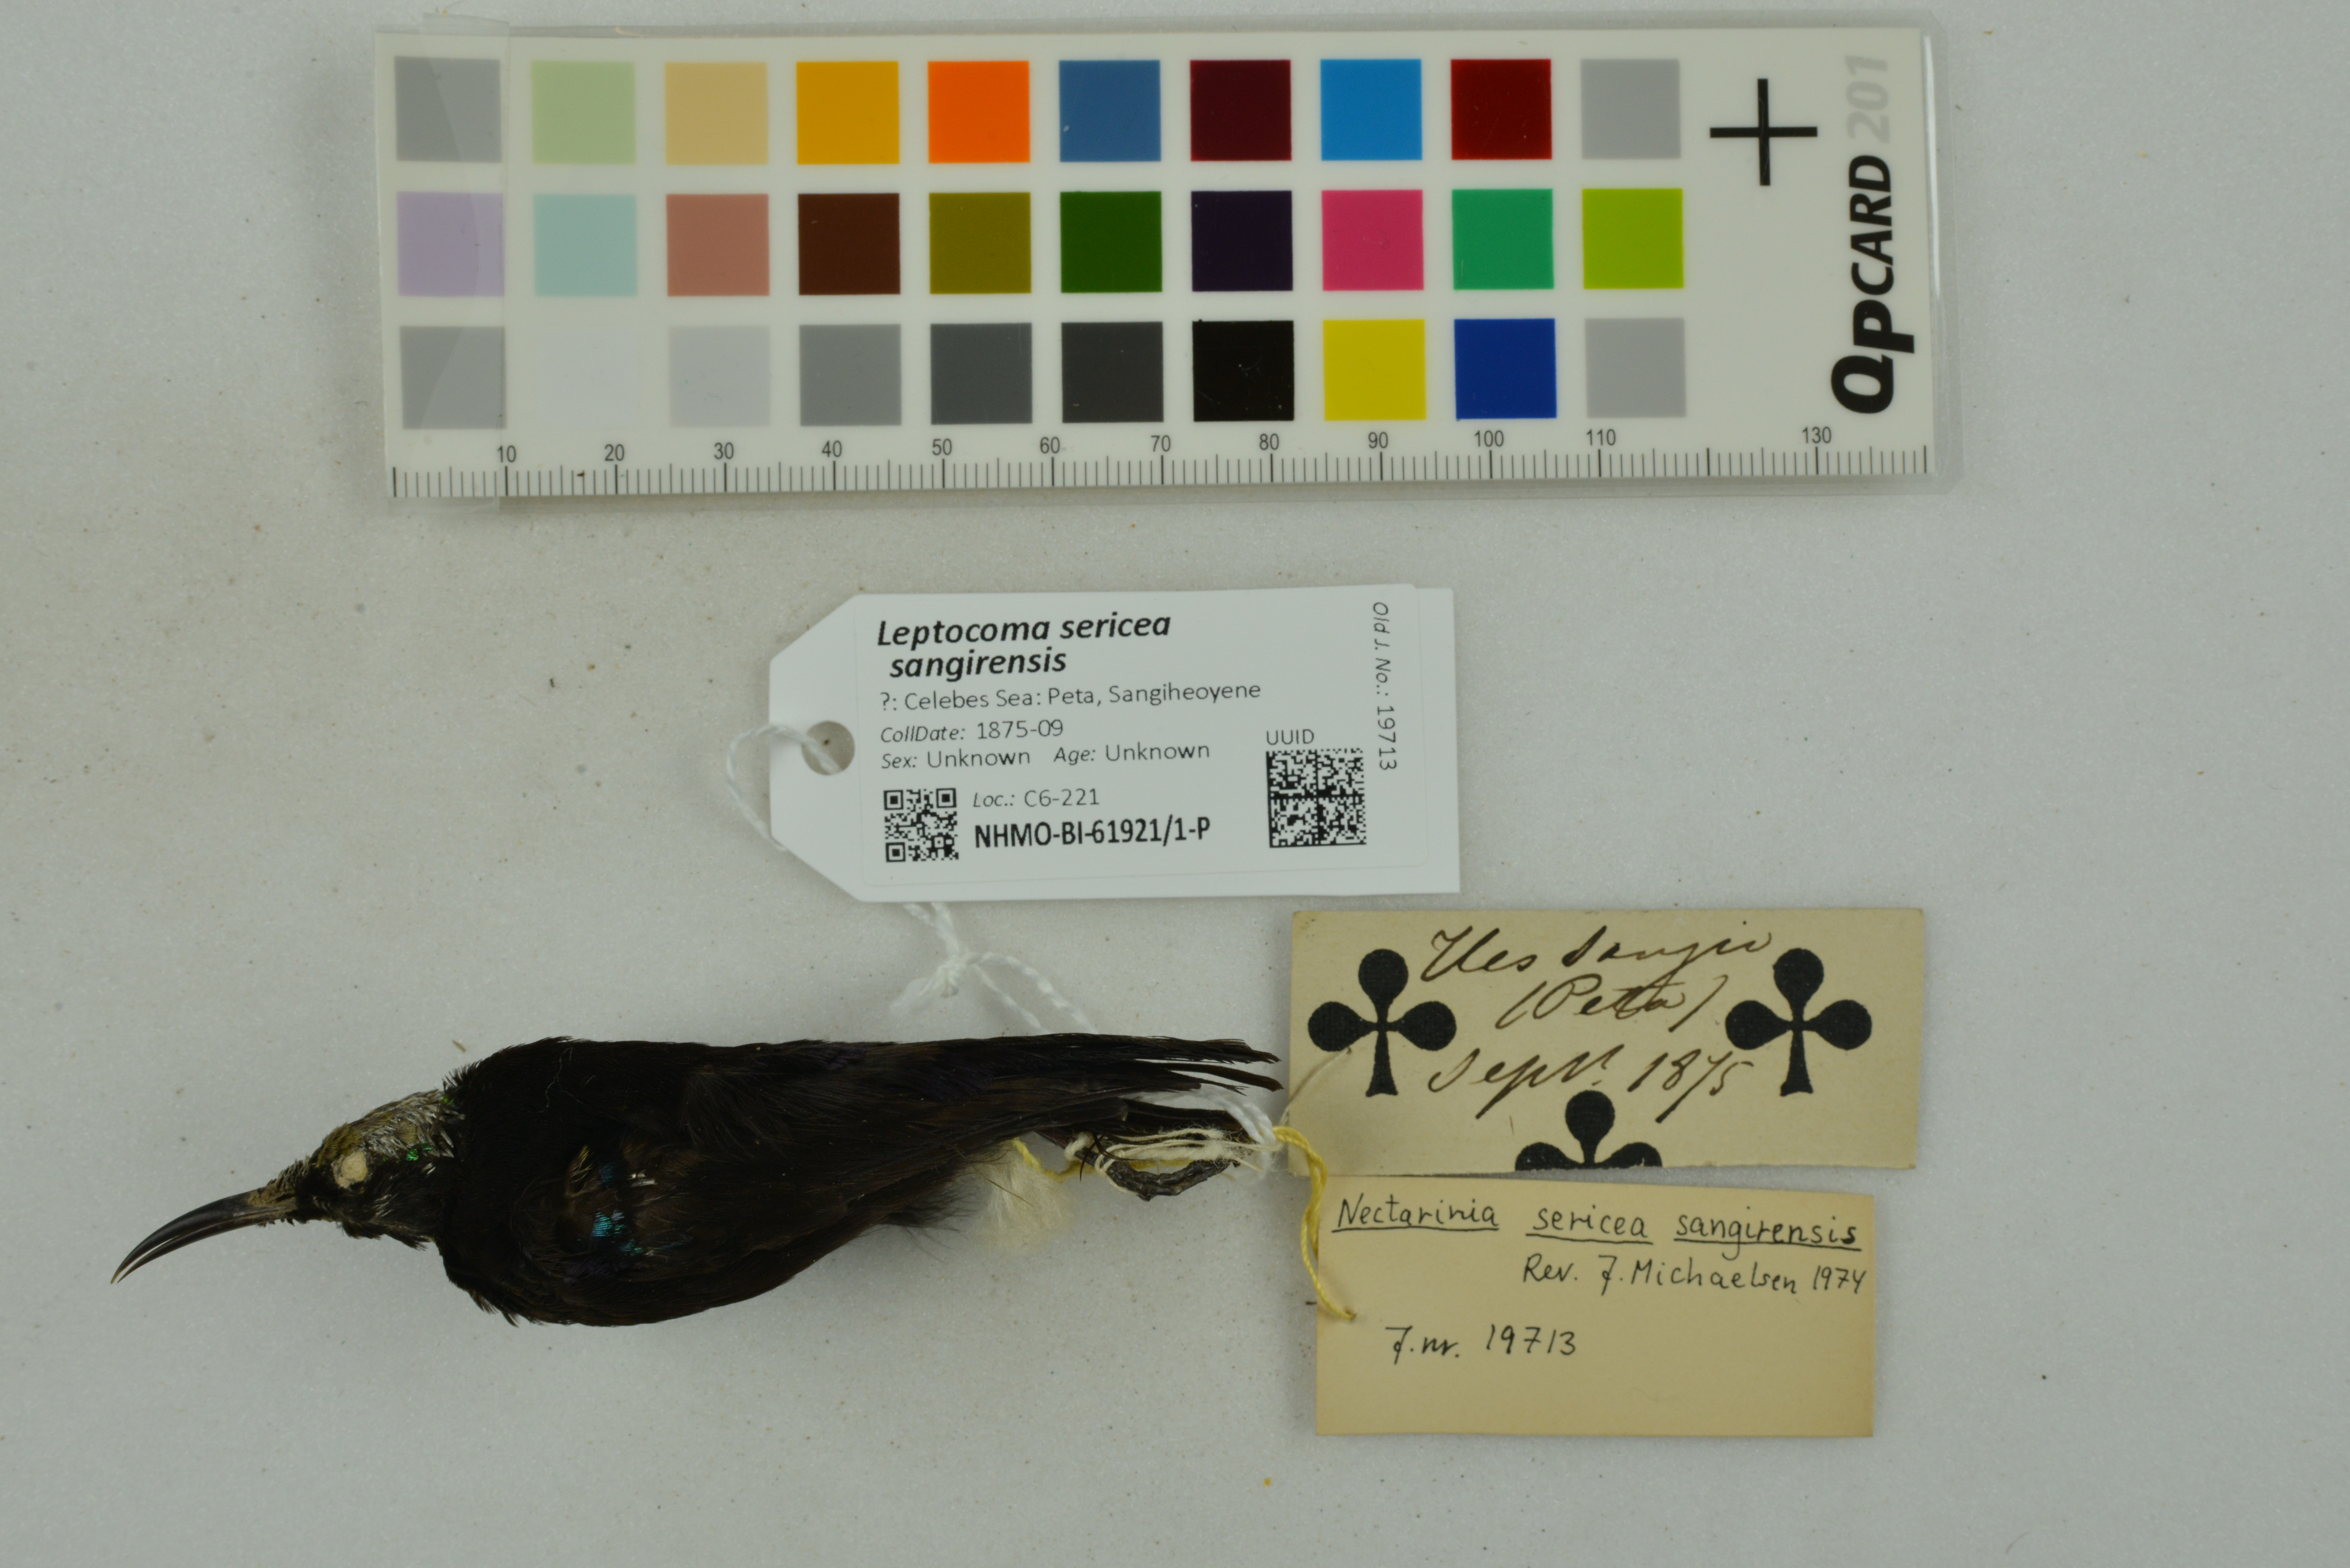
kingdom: Animalia
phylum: Chordata
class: Aves
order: Passeriformes
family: Nectariniidae
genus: Leptocoma
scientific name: Leptocoma sericea
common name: Black sunbird
